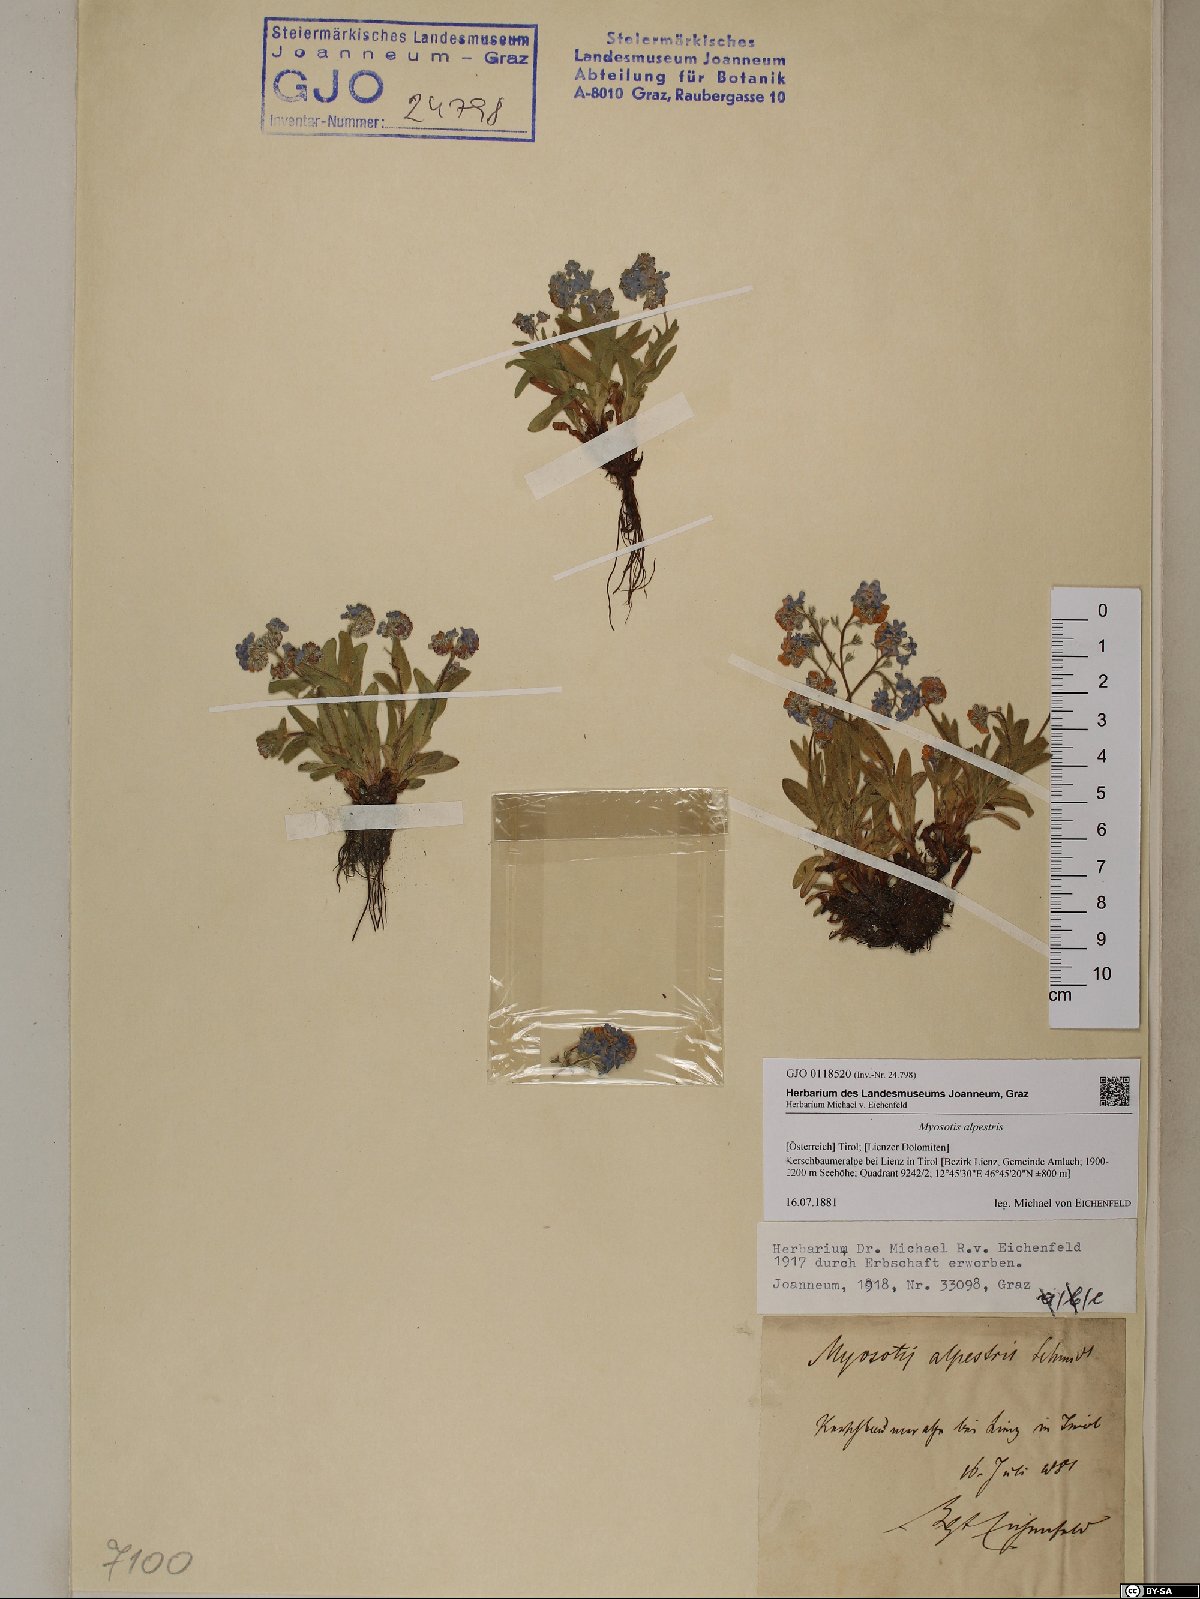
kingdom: Plantae
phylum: Tracheophyta
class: Magnoliopsida
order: Boraginales
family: Boraginaceae
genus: Myosotis
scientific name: Myosotis alpestris
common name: Alpine forget-me-not
